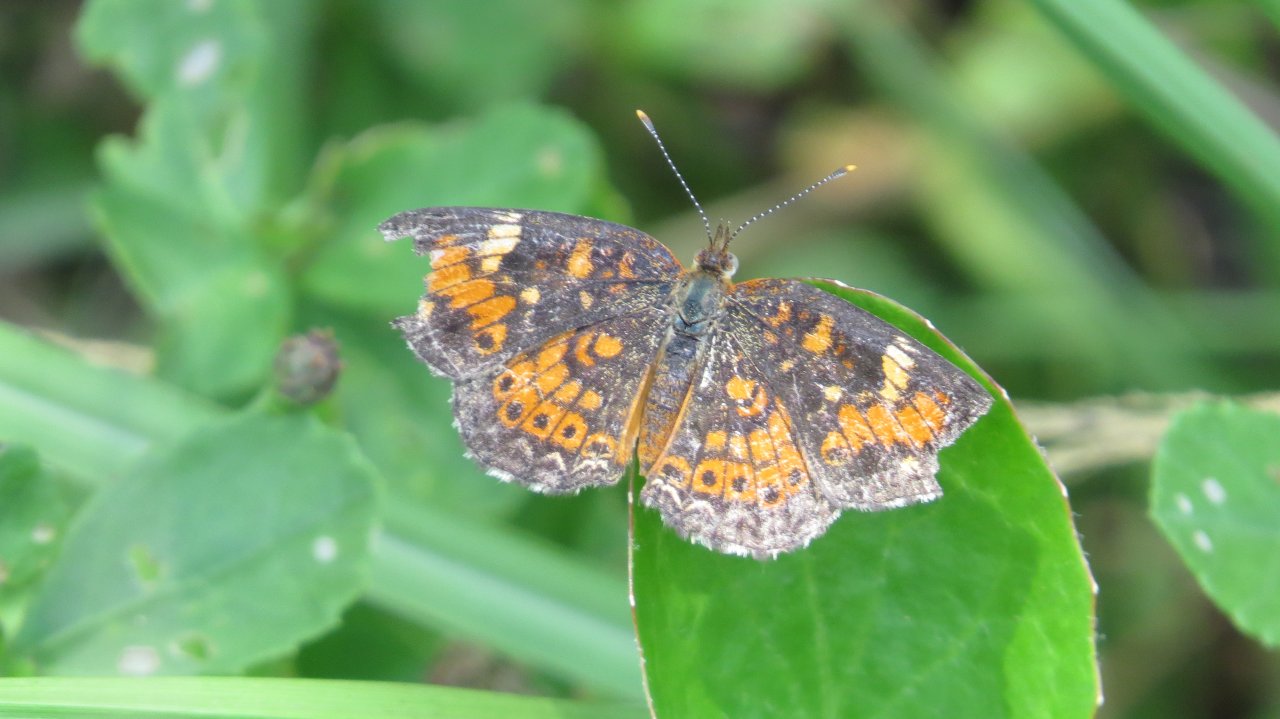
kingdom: Animalia
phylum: Arthropoda
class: Insecta
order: Lepidoptera
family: Nymphalidae
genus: Phyciodes
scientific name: Phyciodes phaon
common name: Phaon Crescent
